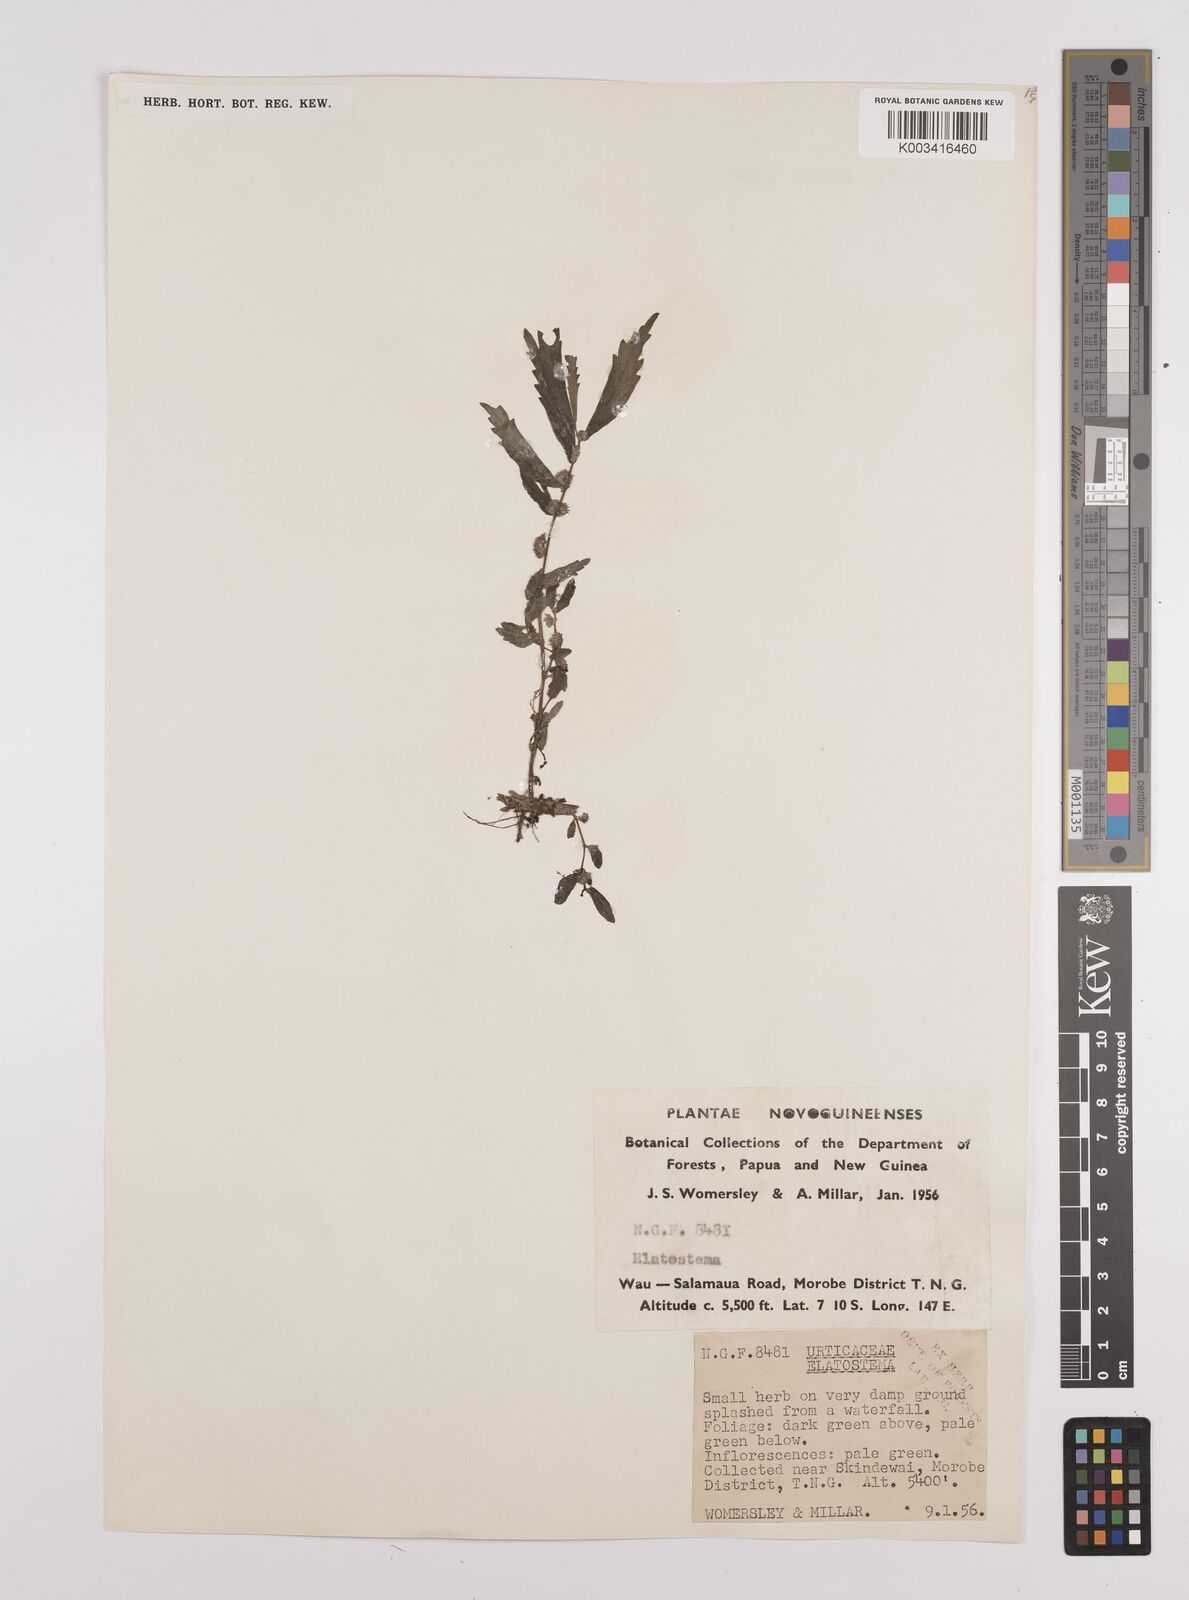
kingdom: Plantae
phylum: Tracheophyta
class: Magnoliopsida
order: Rosales
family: Urticaceae
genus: Elatostema
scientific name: Elatostema
